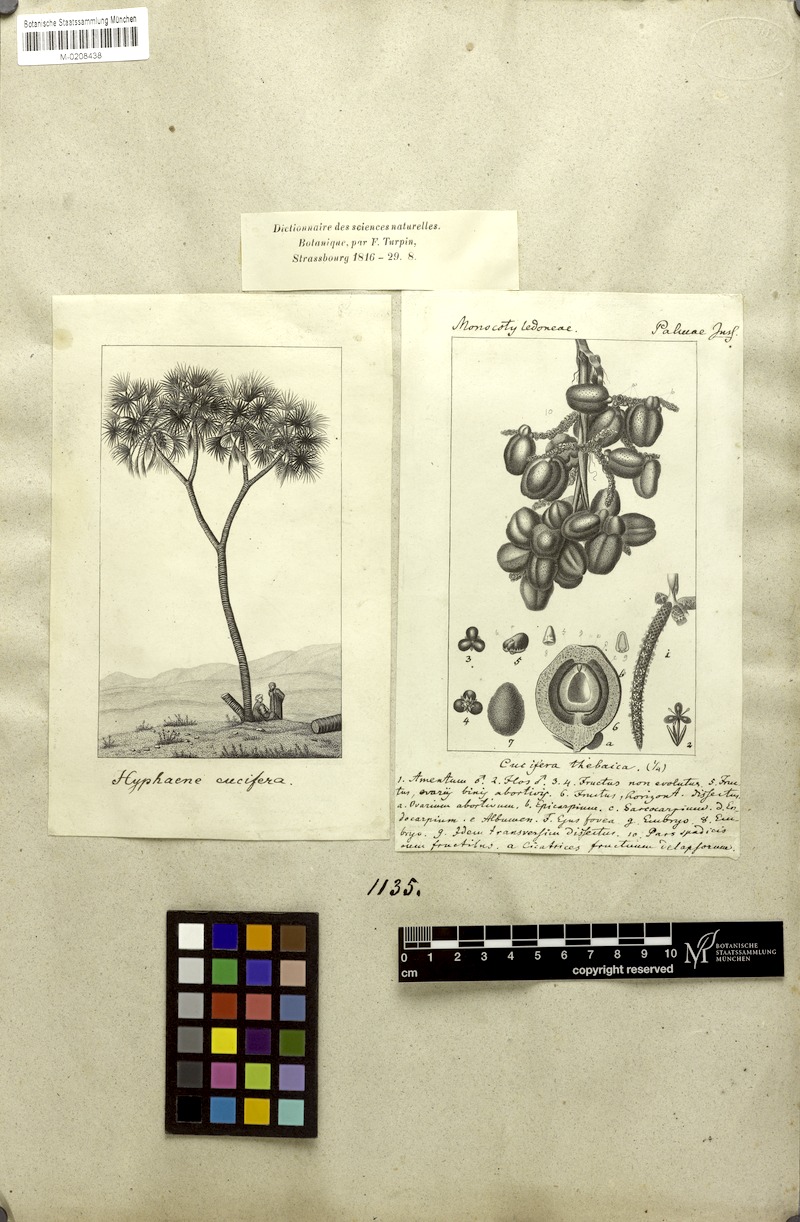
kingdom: Plantae
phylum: Tracheophyta
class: Liliopsida
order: Arecales
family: Arecaceae
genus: Hyphaene
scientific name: Hyphaene thebaica
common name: Doum palm
